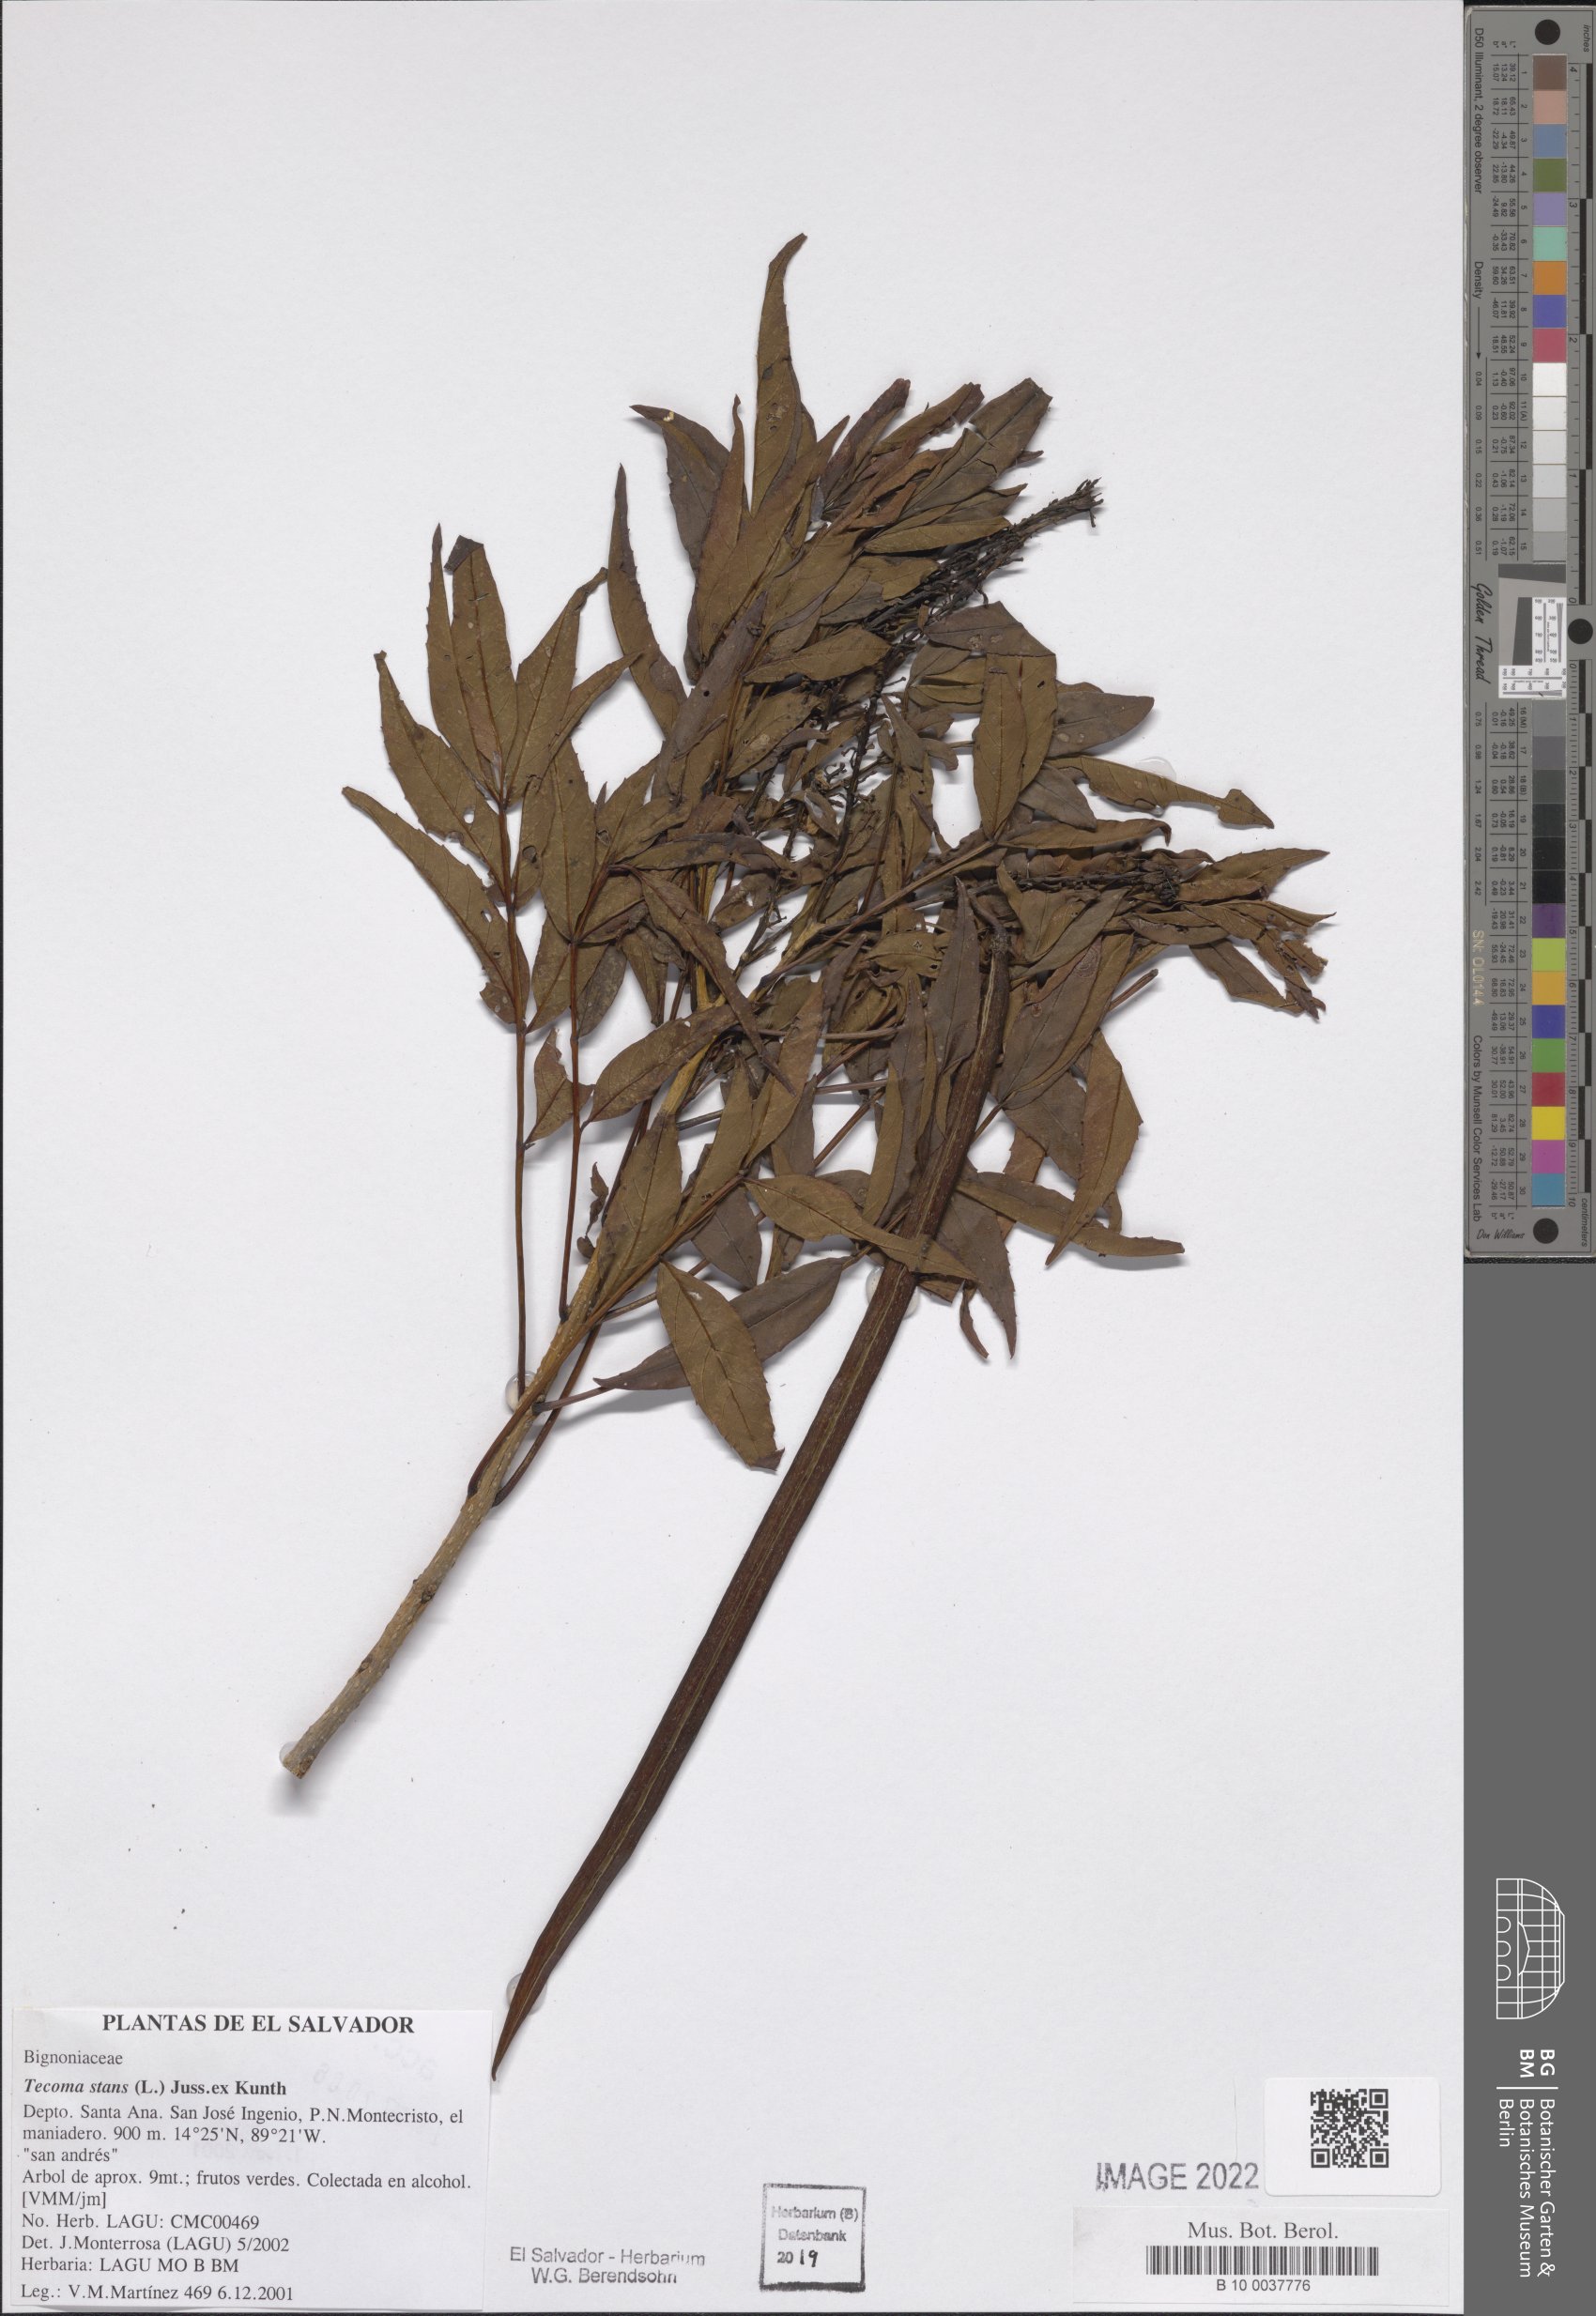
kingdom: Plantae
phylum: Tracheophyta
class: Magnoliopsida
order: Lamiales
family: Bignoniaceae
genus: Tecoma
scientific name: Tecoma stans
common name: Yellow trumpetbush
